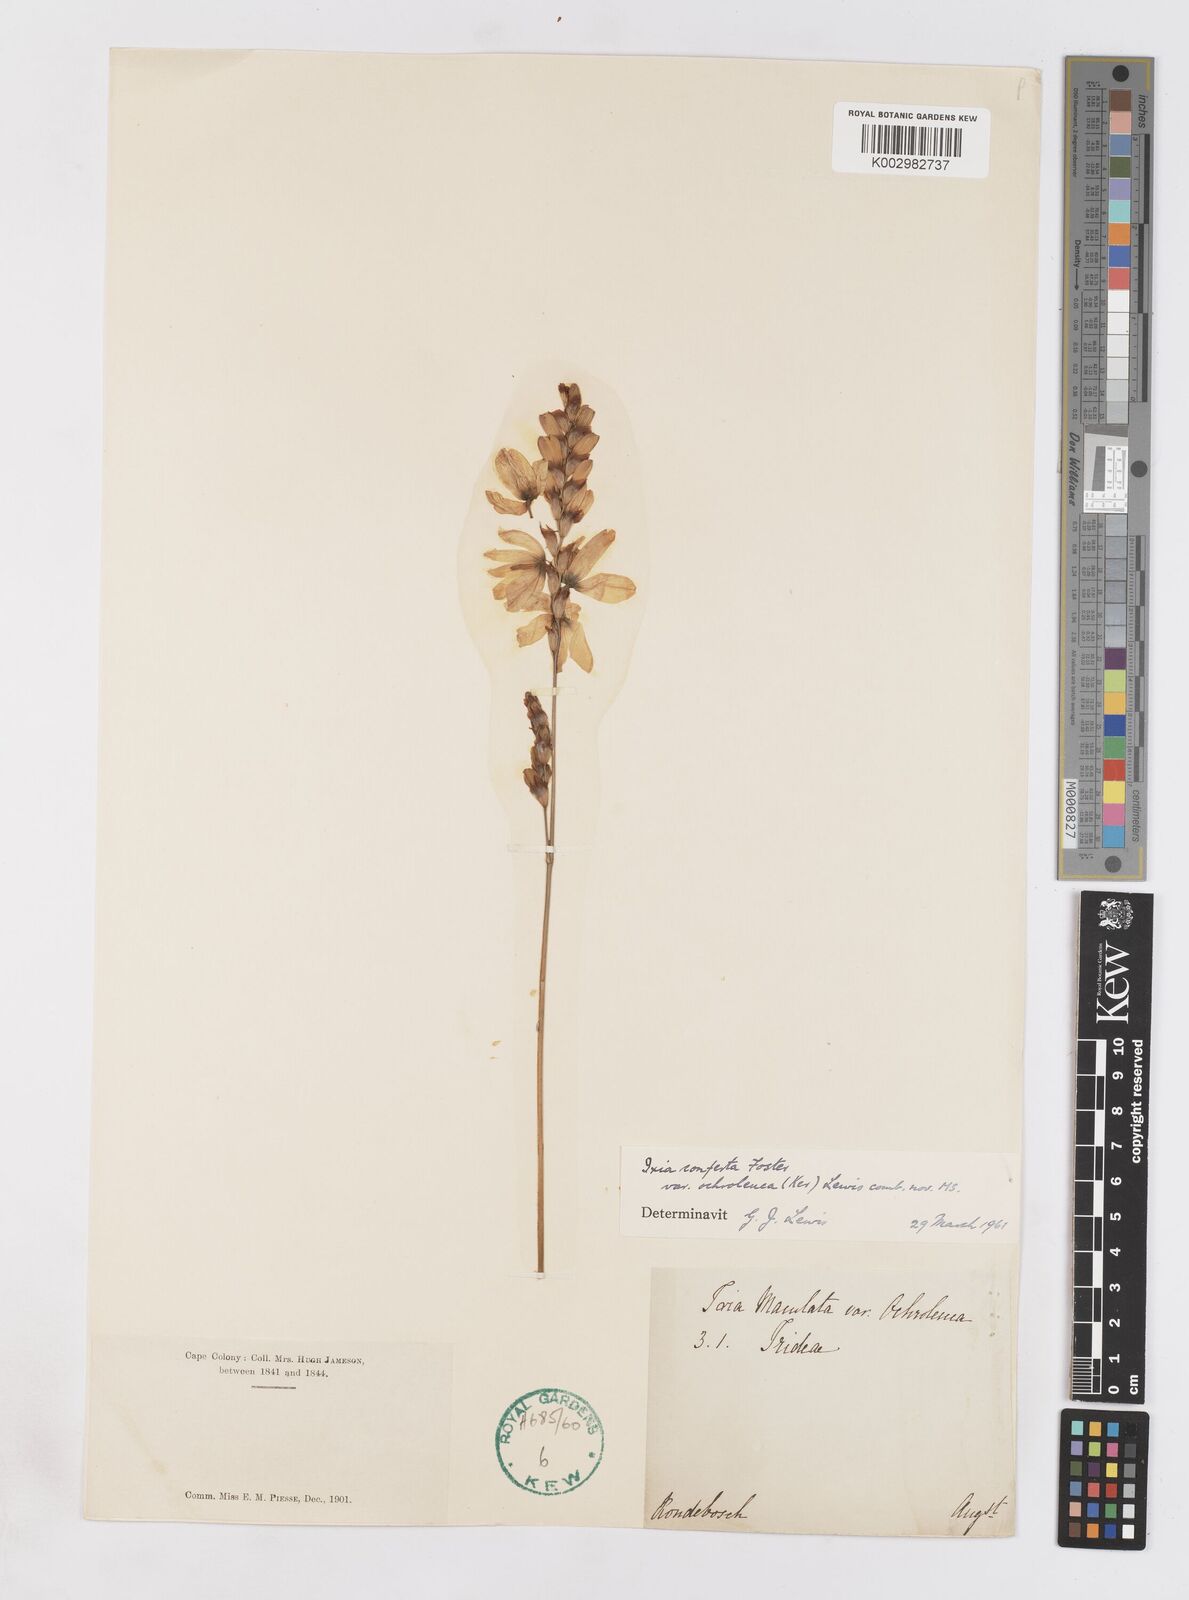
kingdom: Plantae
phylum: Tracheophyta
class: Liliopsida
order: Asparagales
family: Iridaceae
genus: Ixia
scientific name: Ixia abbreviata
